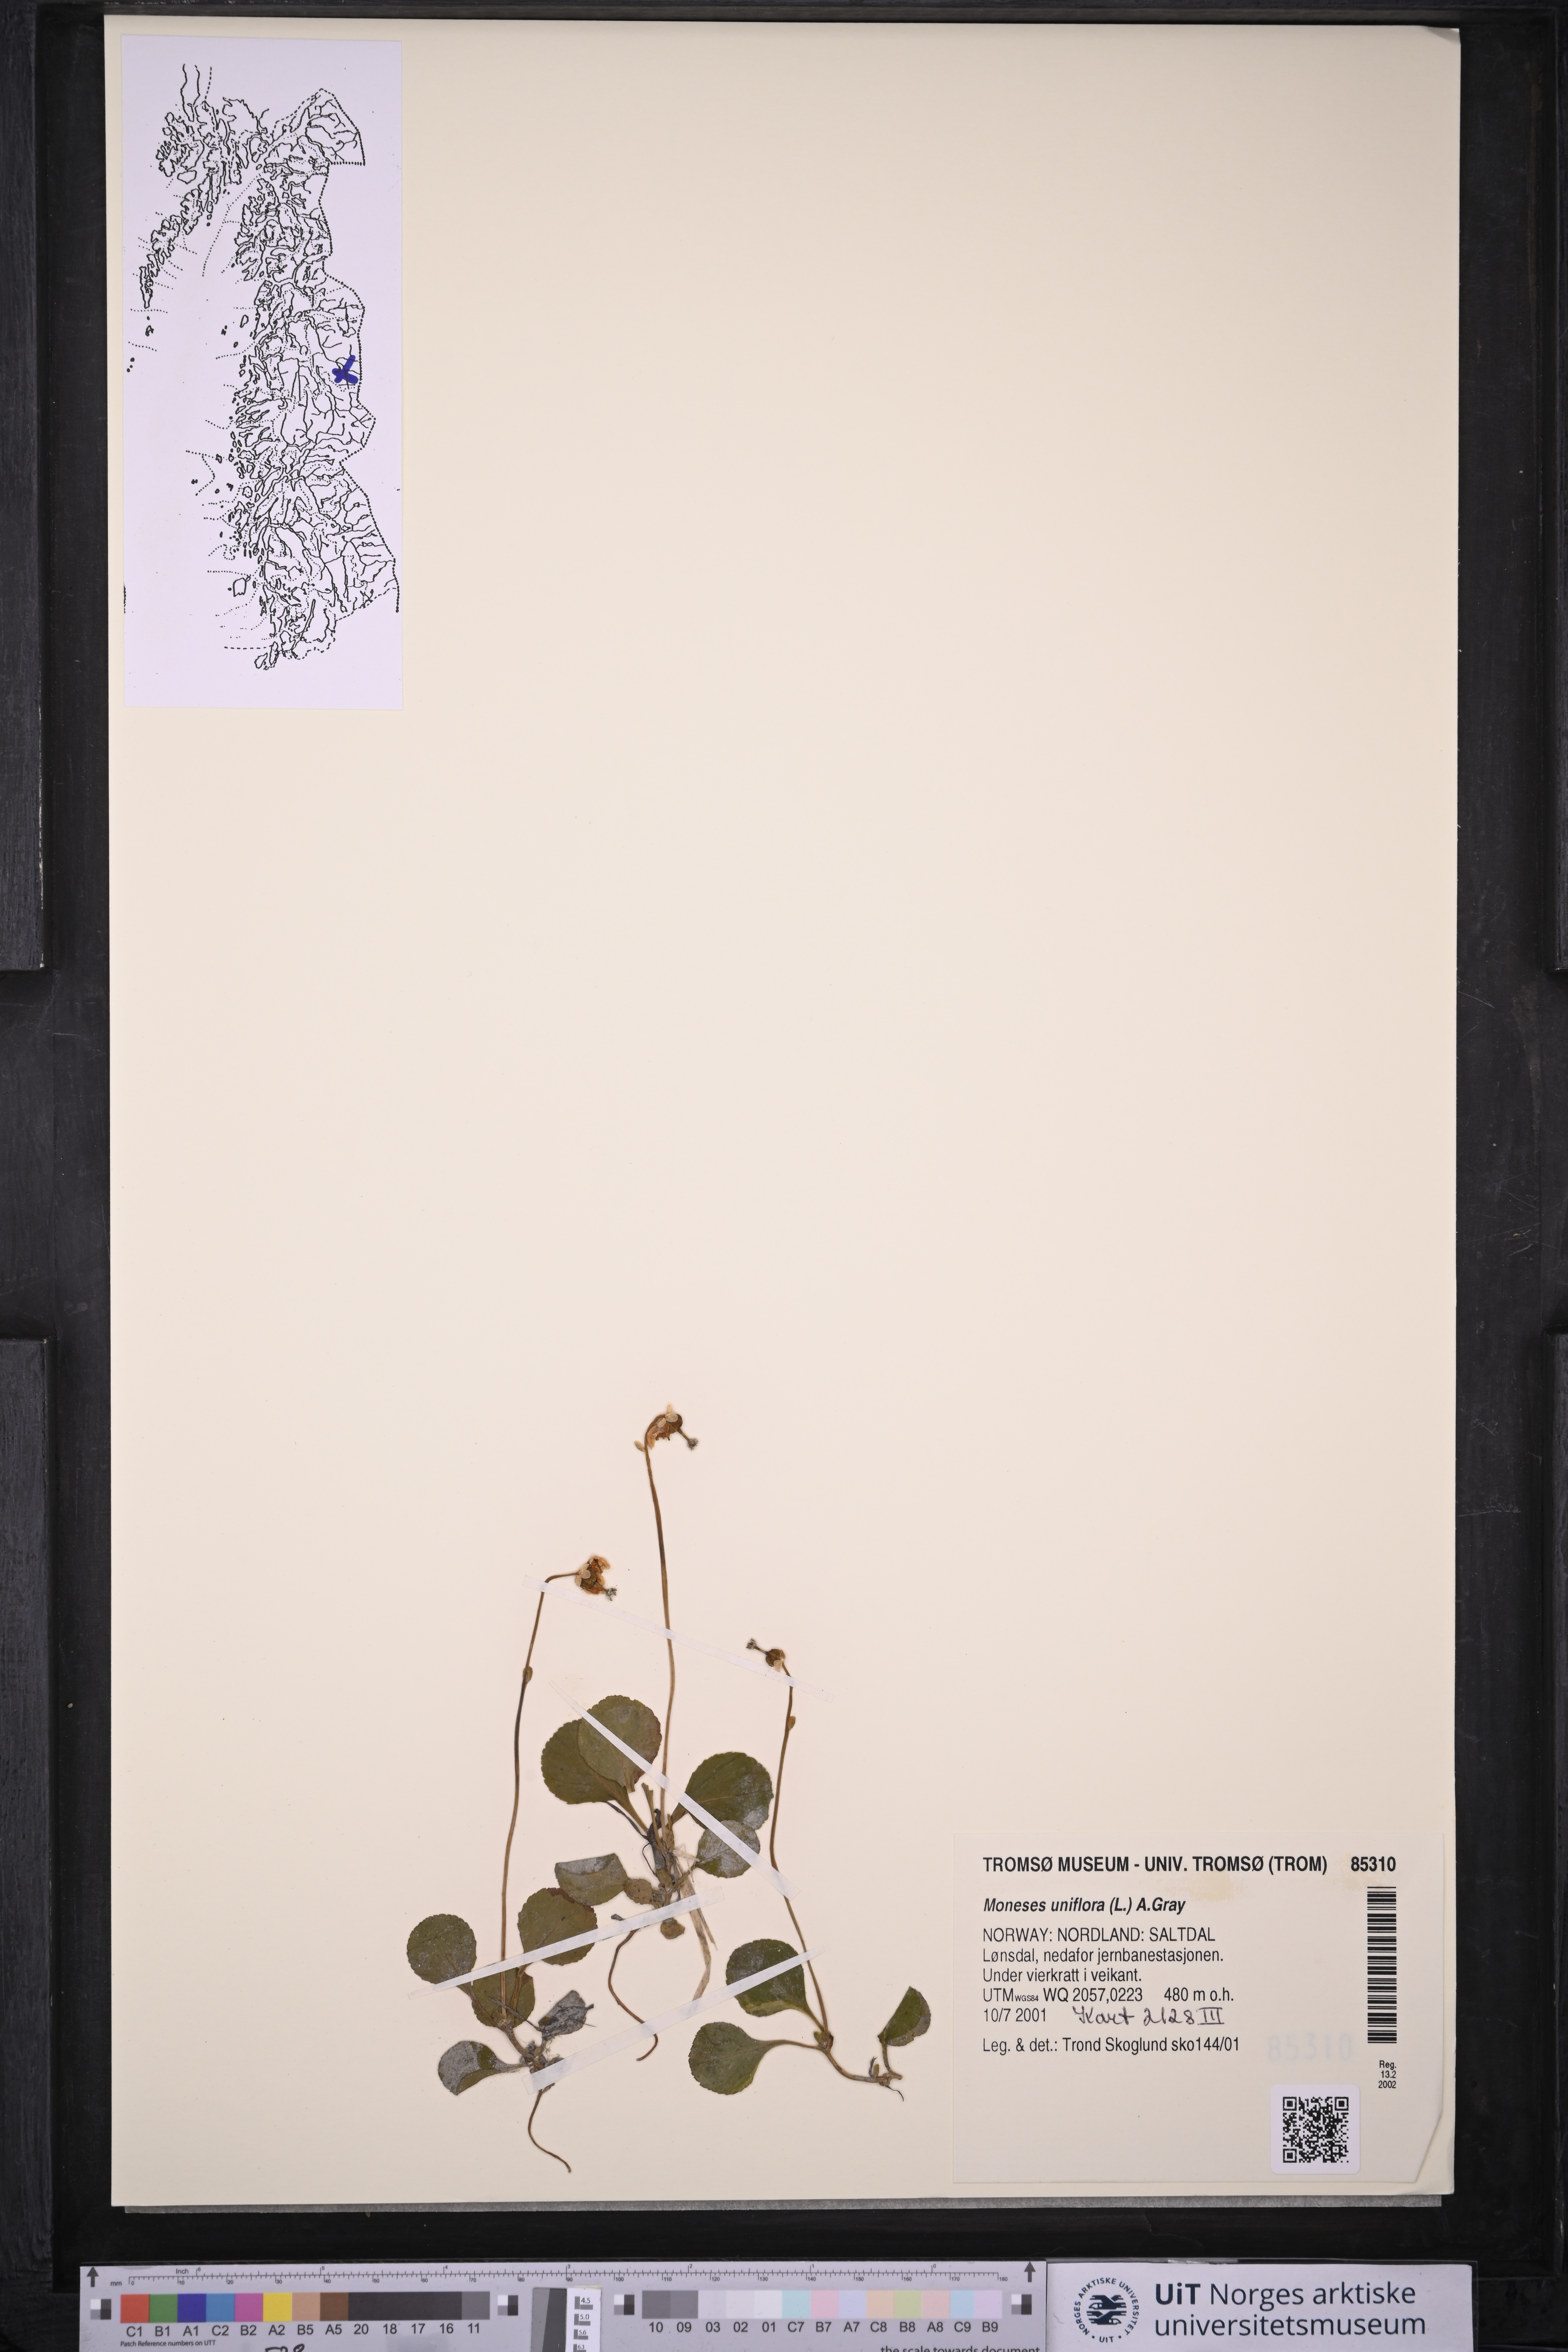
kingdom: Plantae
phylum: Tracheophyta
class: Magnoliopsida
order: Ericales
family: Ericaceae
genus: Moneses
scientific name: Moneses uniflora
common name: One-flowered wintergreen
